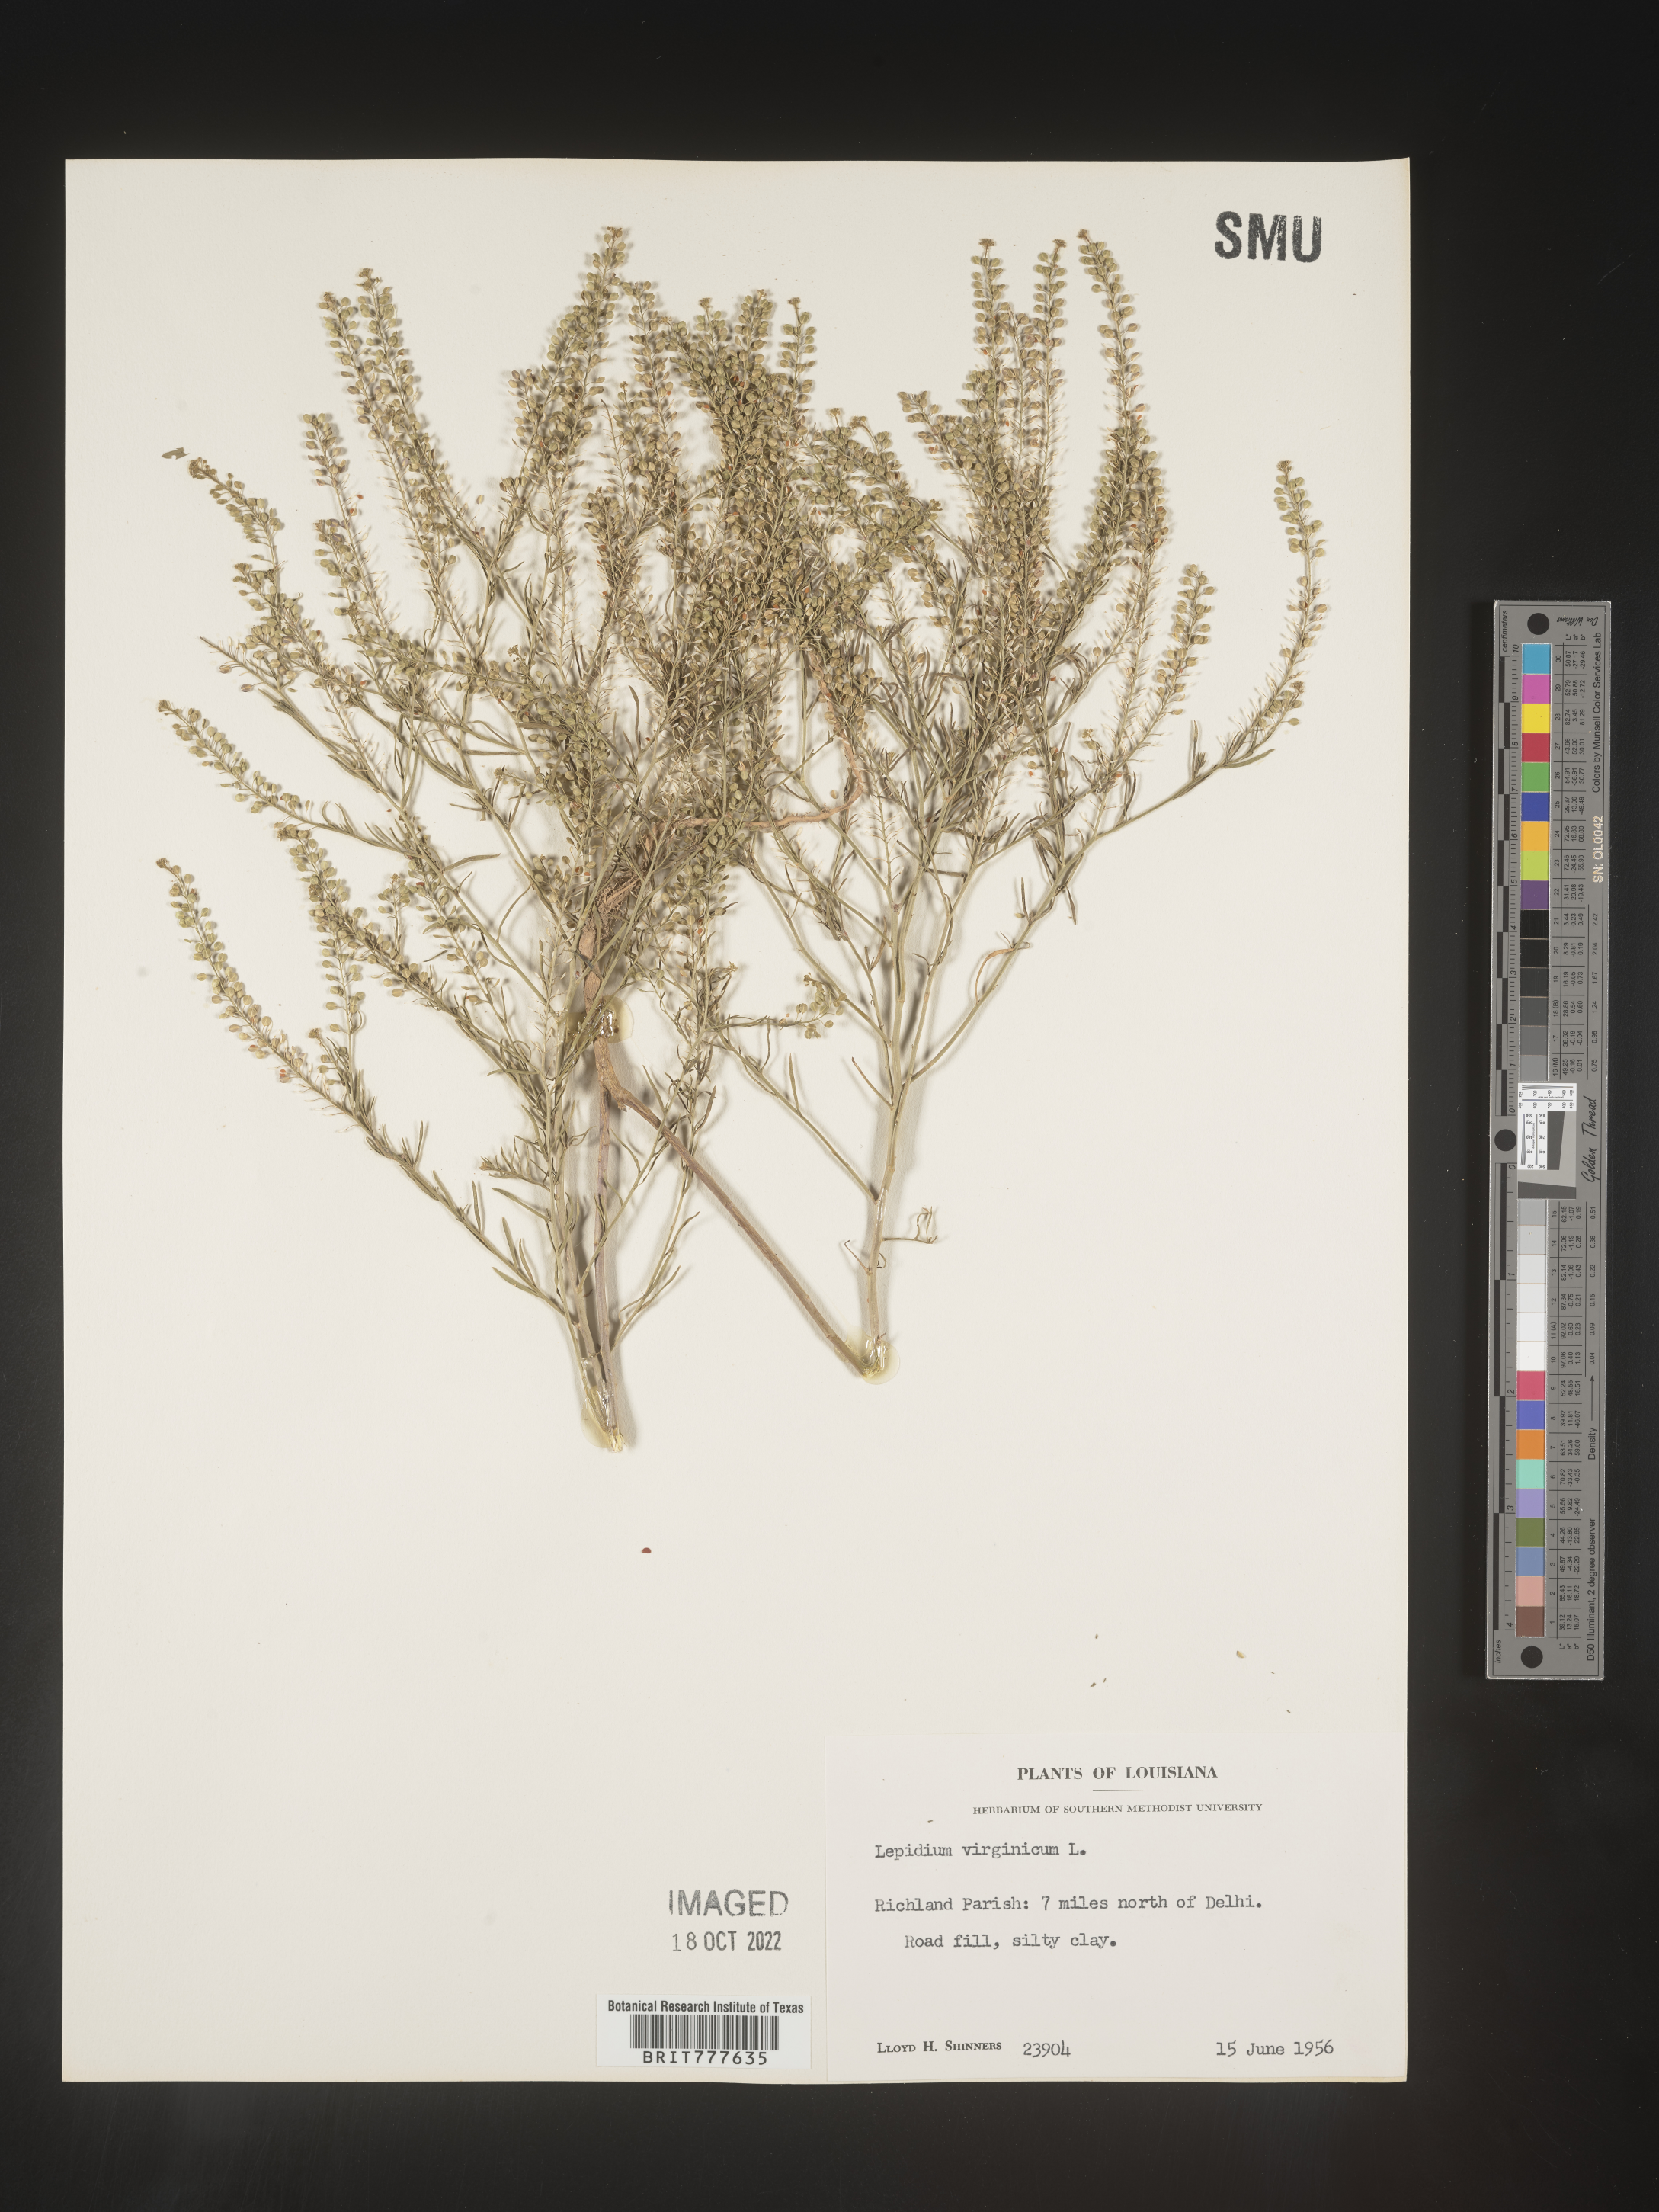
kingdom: Plantae
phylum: Tracheophyta
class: Magnoliopsida
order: Brassicales
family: Brassicaceae
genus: Lepidium
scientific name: Lepidium virginicum
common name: Least pepperwort
